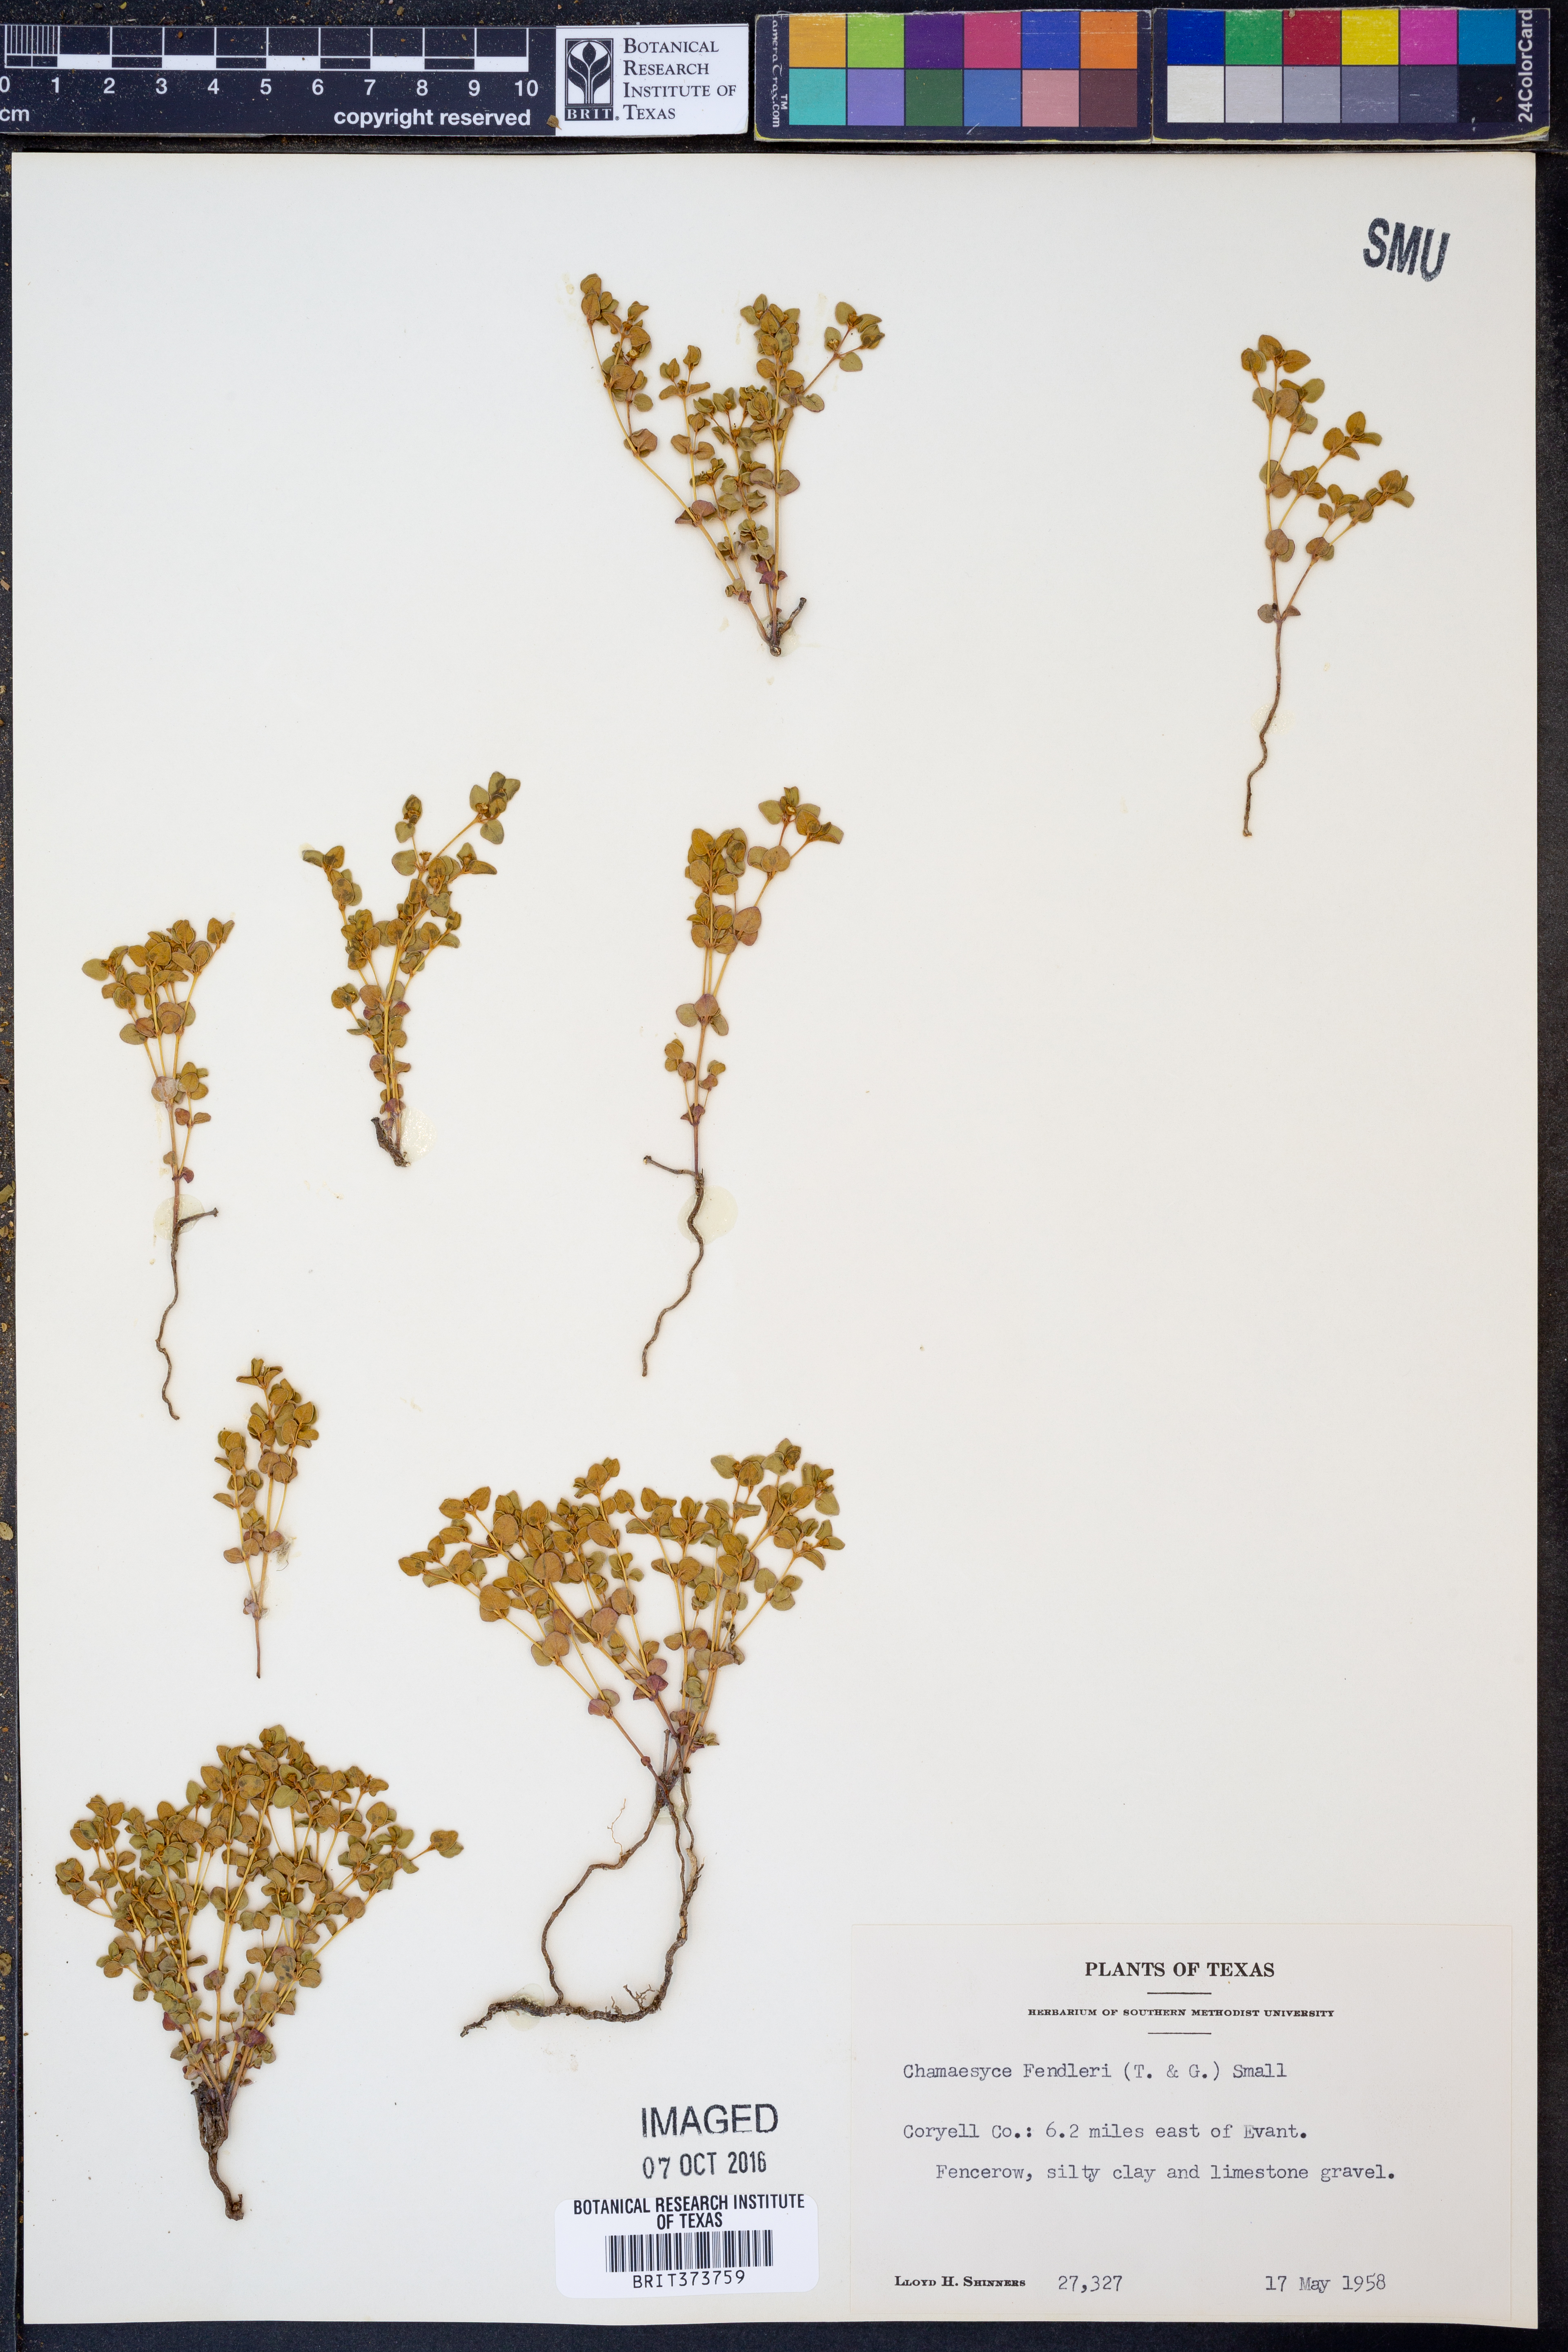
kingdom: Plantae
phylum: Tracheophyta
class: Magnoliopsida
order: Malpighiales
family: Euphorbiaceae
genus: Euphorbia
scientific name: Euphorbia fendleri
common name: Fendler's euphorbia
